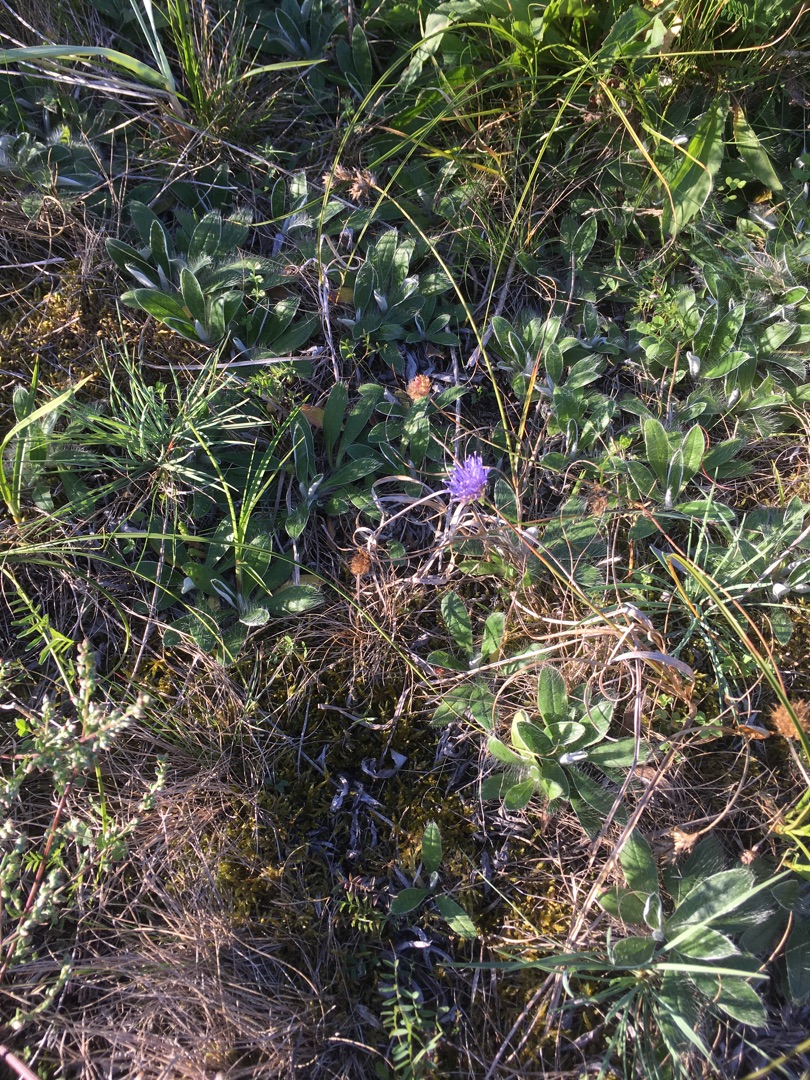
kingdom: Plantae
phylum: Tracheophyta
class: Magnoliopsida
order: Asterales
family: Campanulaceae
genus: Jasione
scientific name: Jasione montana
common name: Blåmunke
